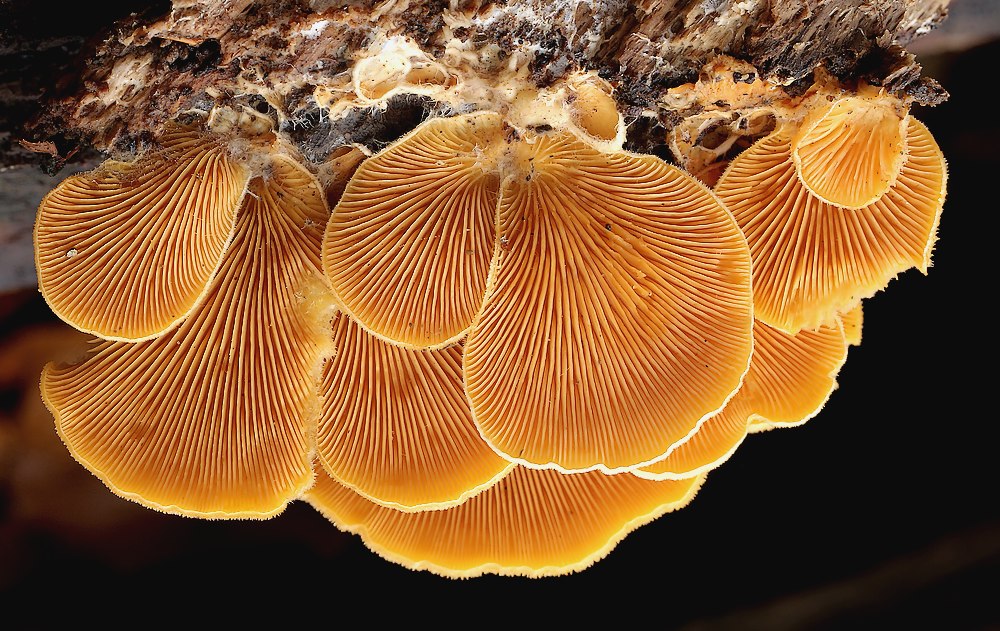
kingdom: Fungi
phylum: Basidiomycota
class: Agaricomycetes
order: Agaricales
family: Phyllotopsidaceae
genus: Phyllotopsis
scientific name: Phyllotopsis nidulans
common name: okkerblad
